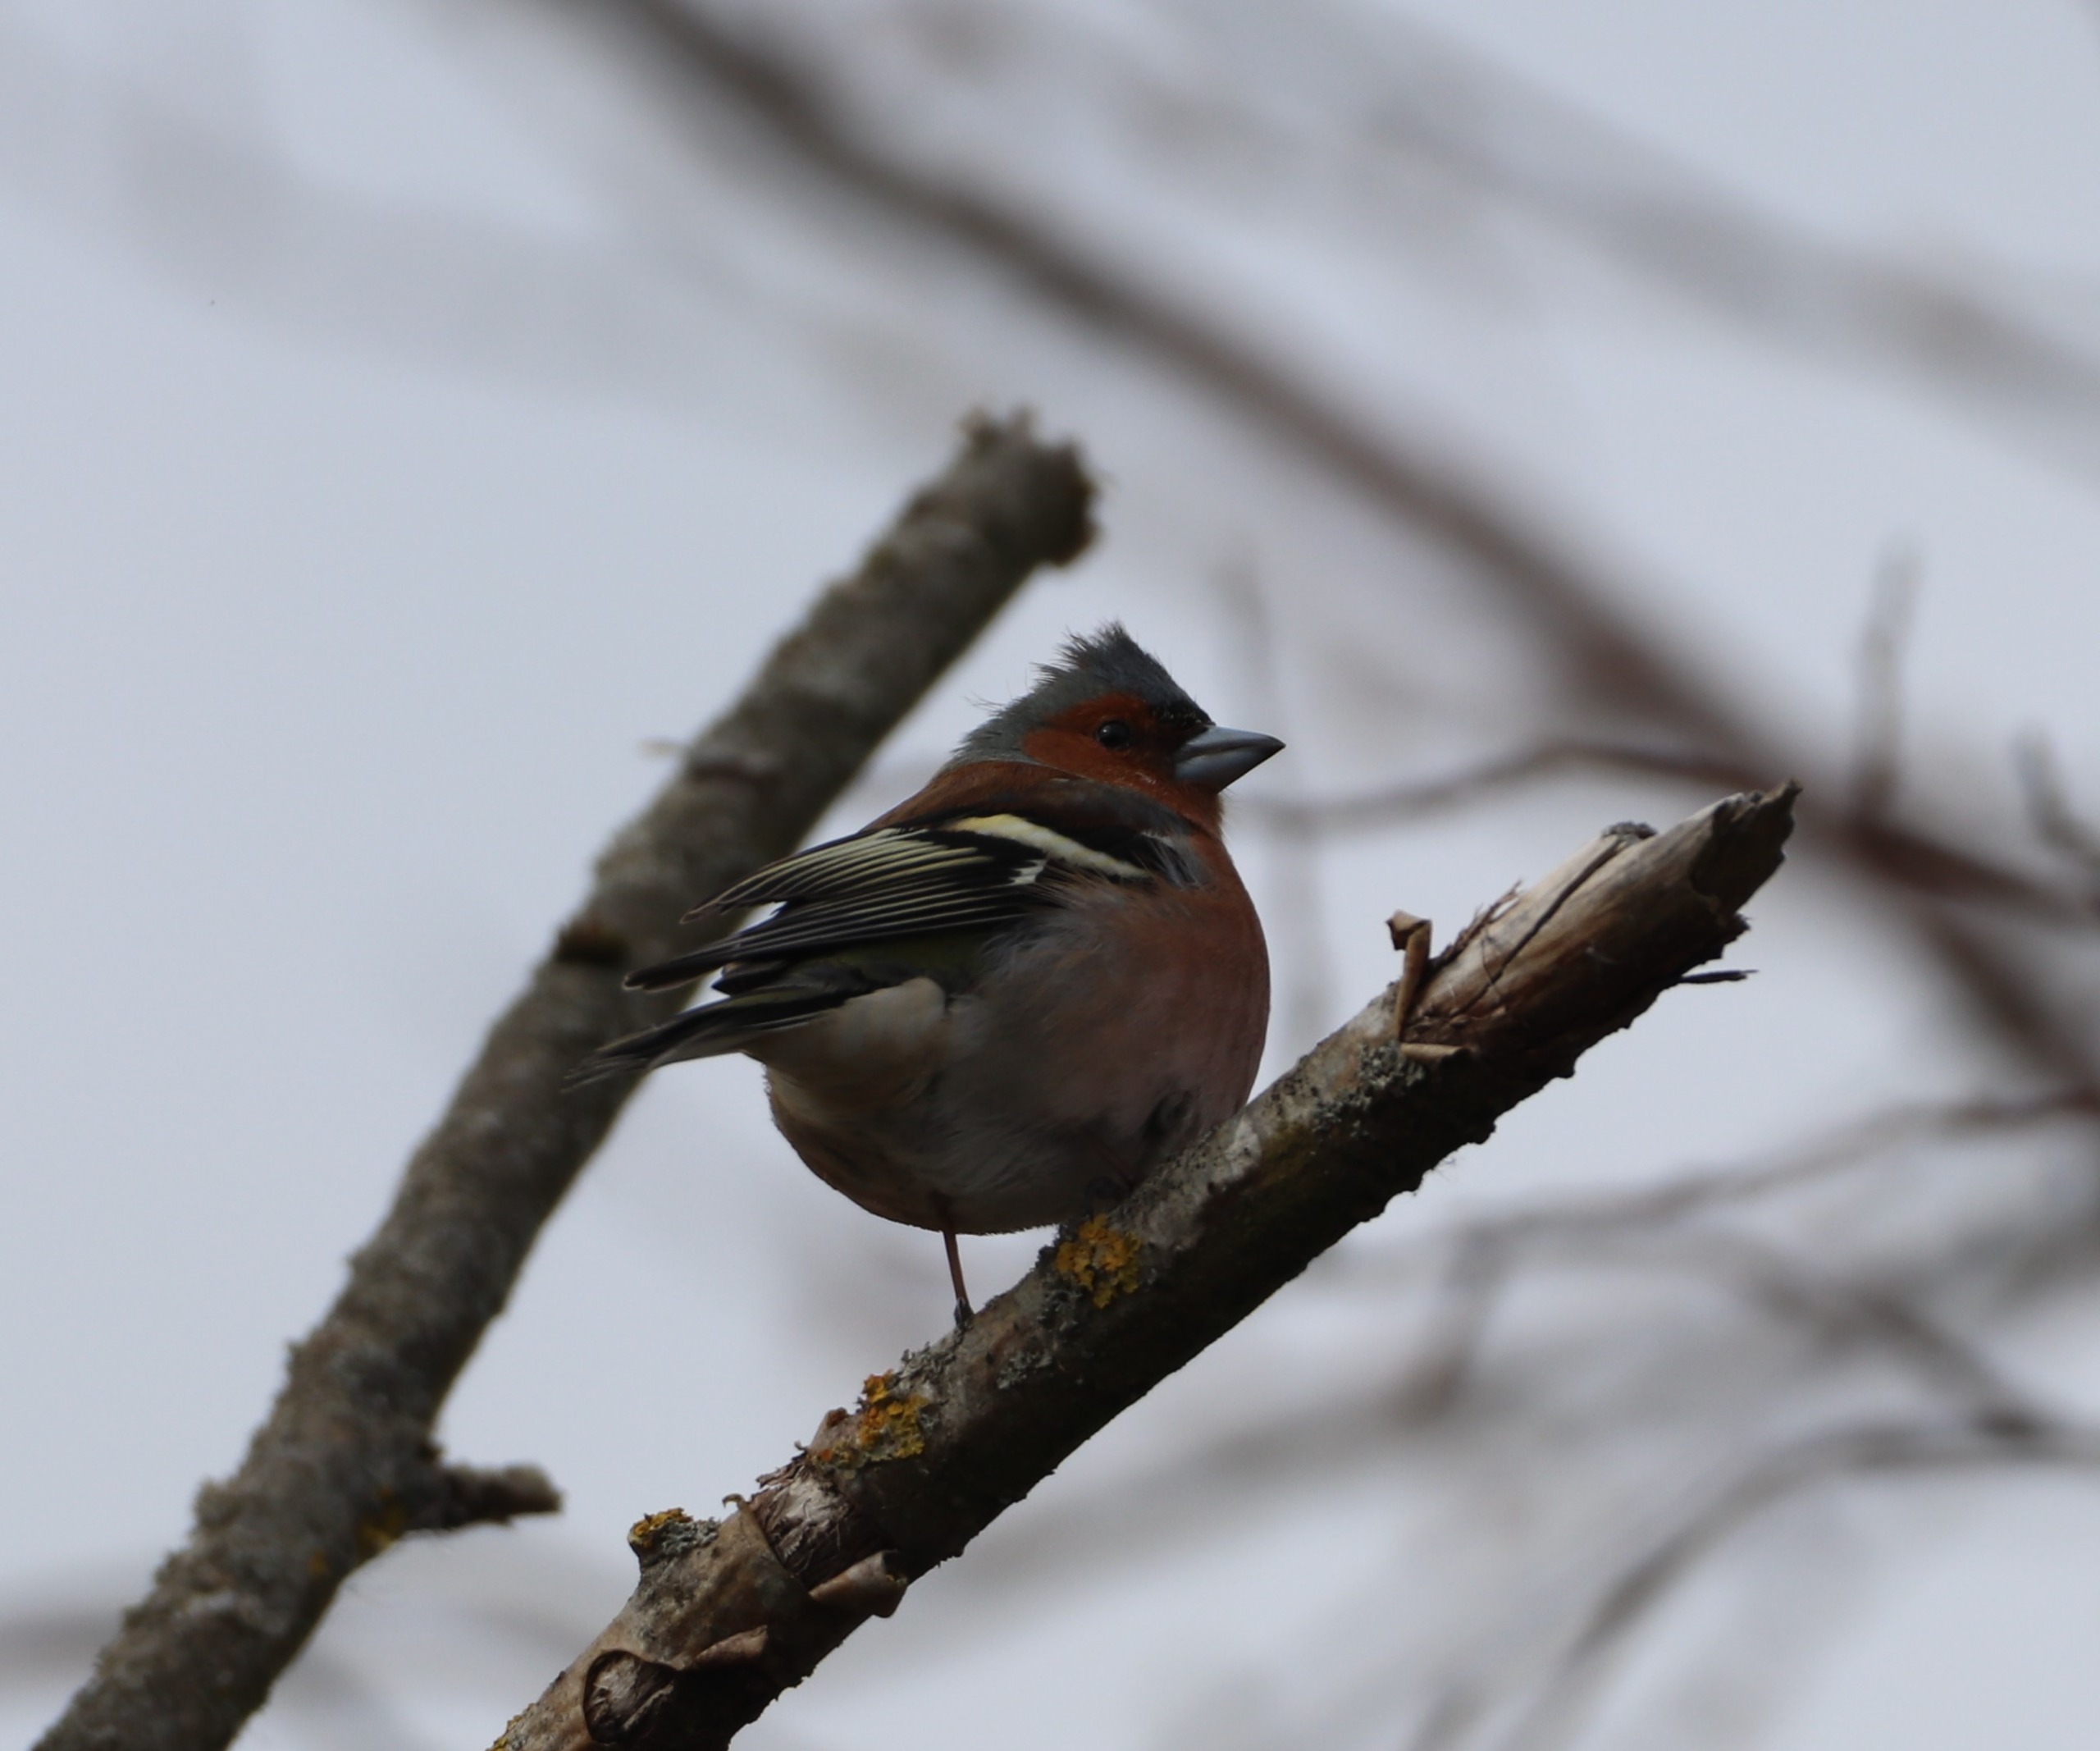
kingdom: Animalia
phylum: Chordata
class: Aves
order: Passeriformes
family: Fringillidae
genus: Fringilla
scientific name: Fringilla coelebs
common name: Bogfinke
